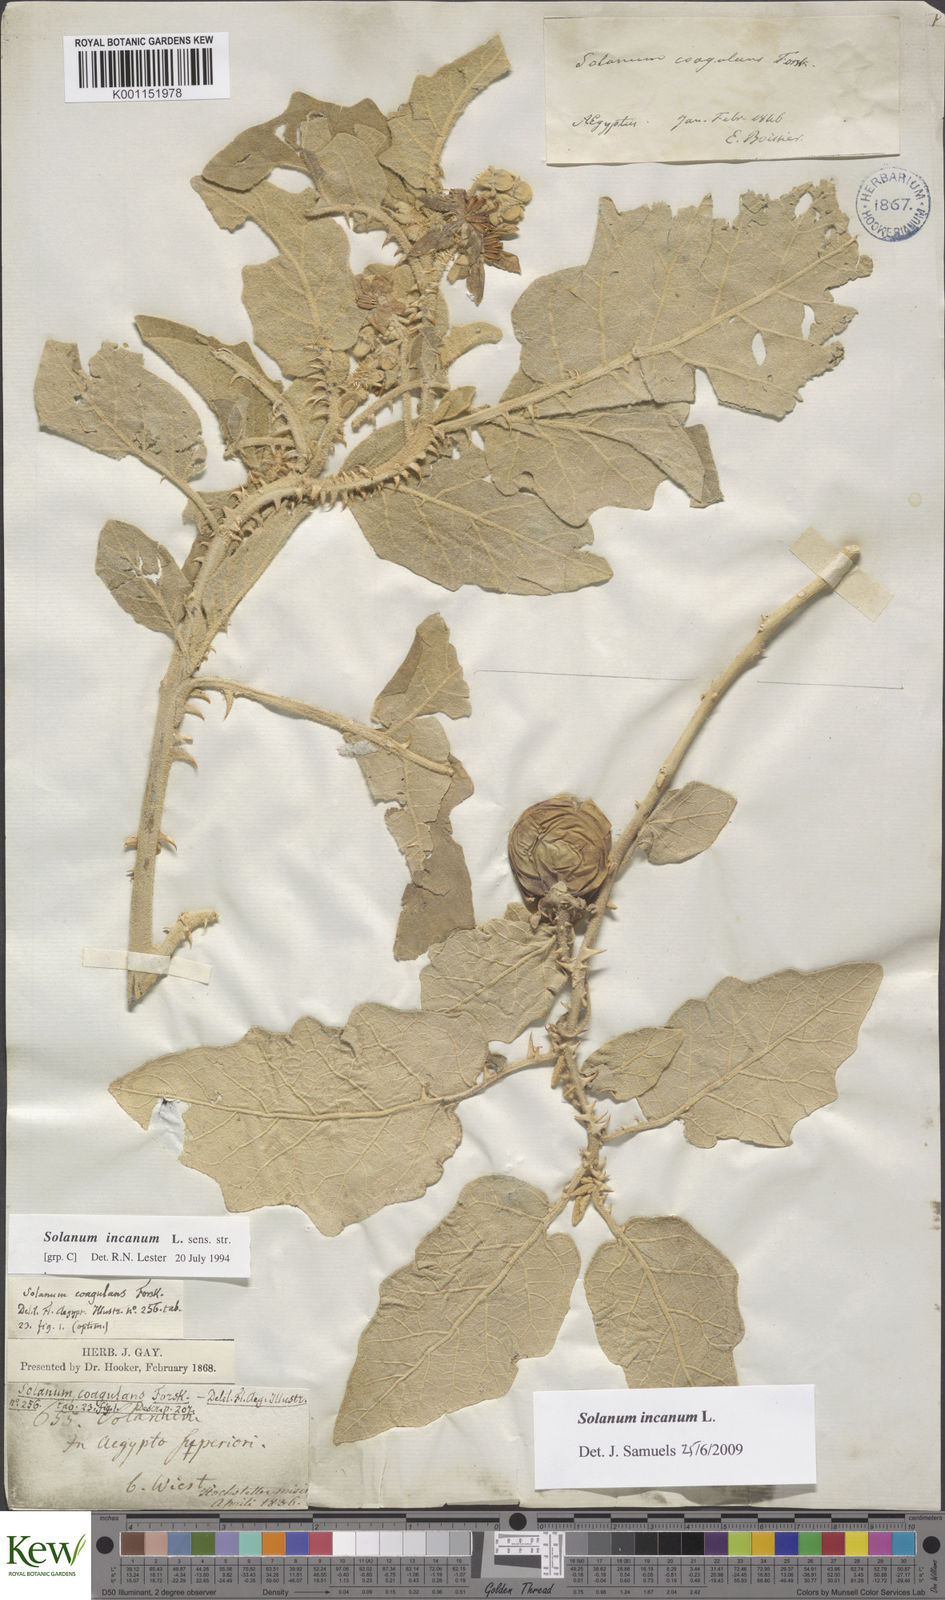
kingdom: Plantae
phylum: Tracheophyta
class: Magnoliopsida
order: Solanales
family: Solanaceae
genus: Solanum
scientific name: Solanum incanum
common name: Bitter apple
